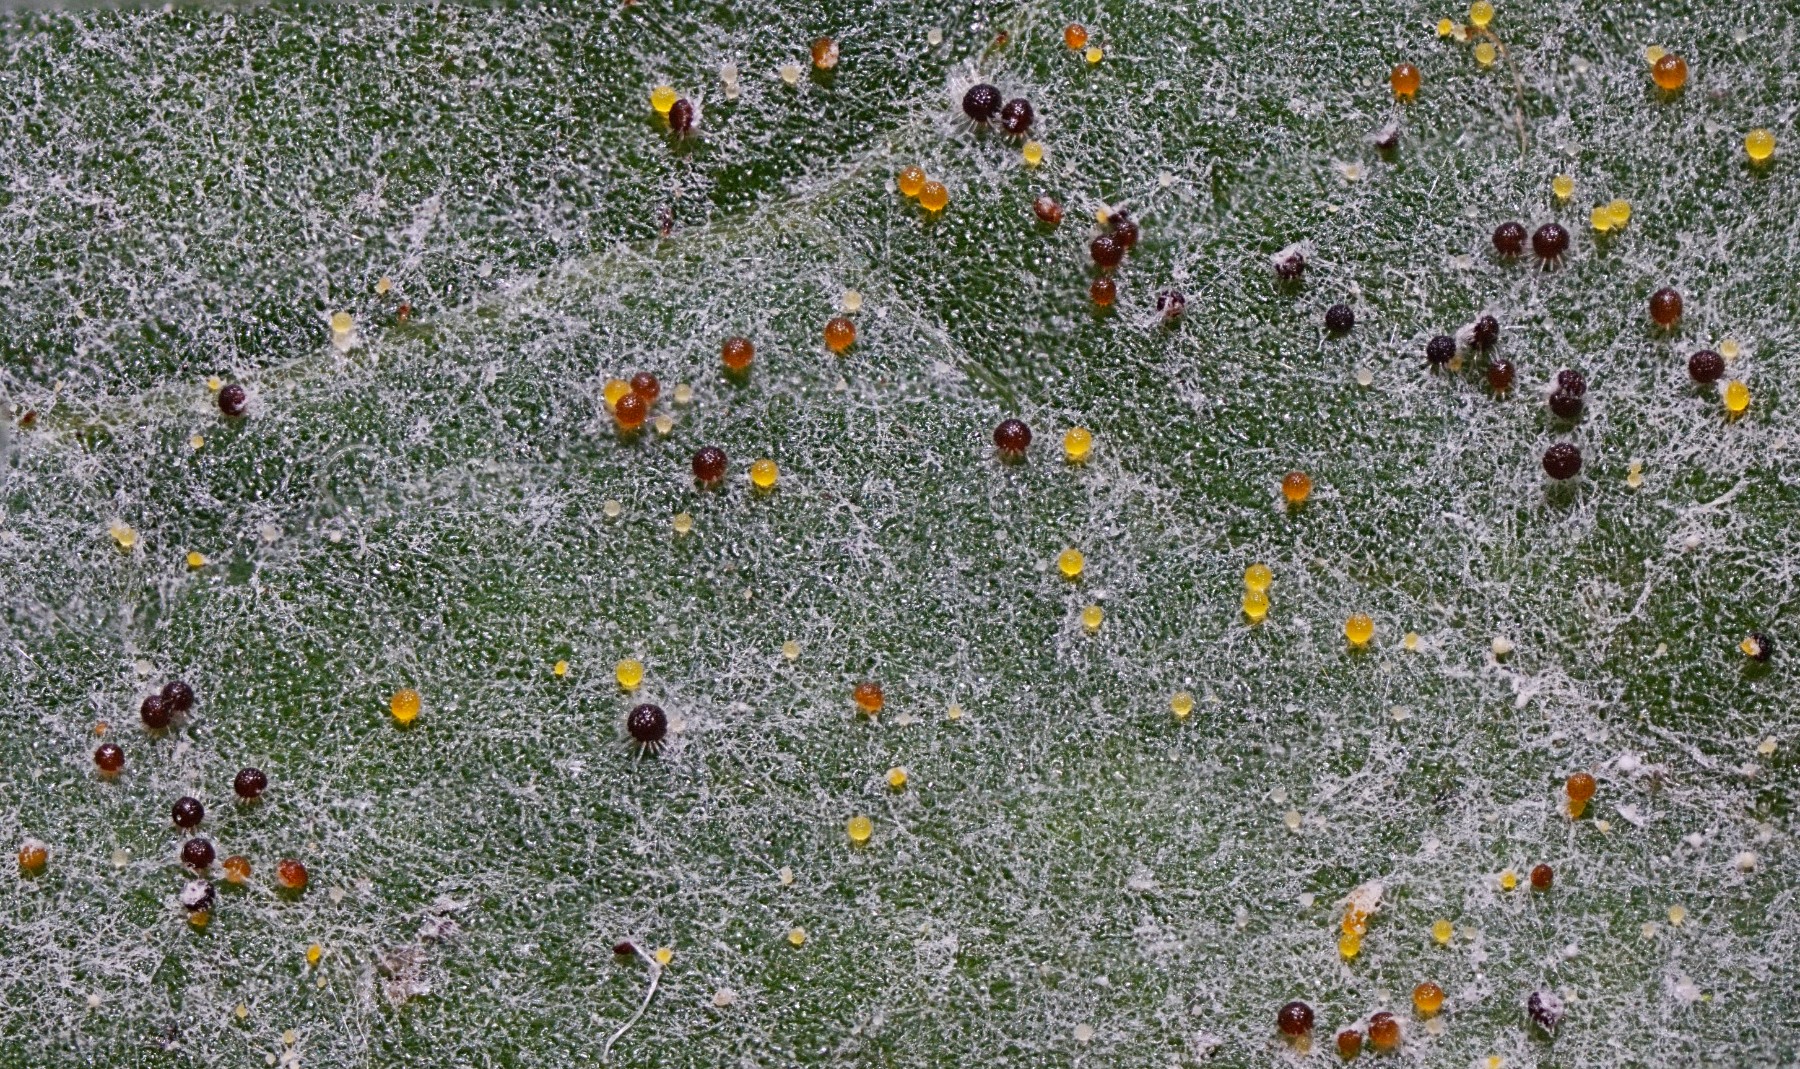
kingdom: Fungi
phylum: Ascomycota
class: Leotiomycetes
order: Helotiales
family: Erysiphaceae
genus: Erysiphe
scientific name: Erysiphe vanbruntiana
